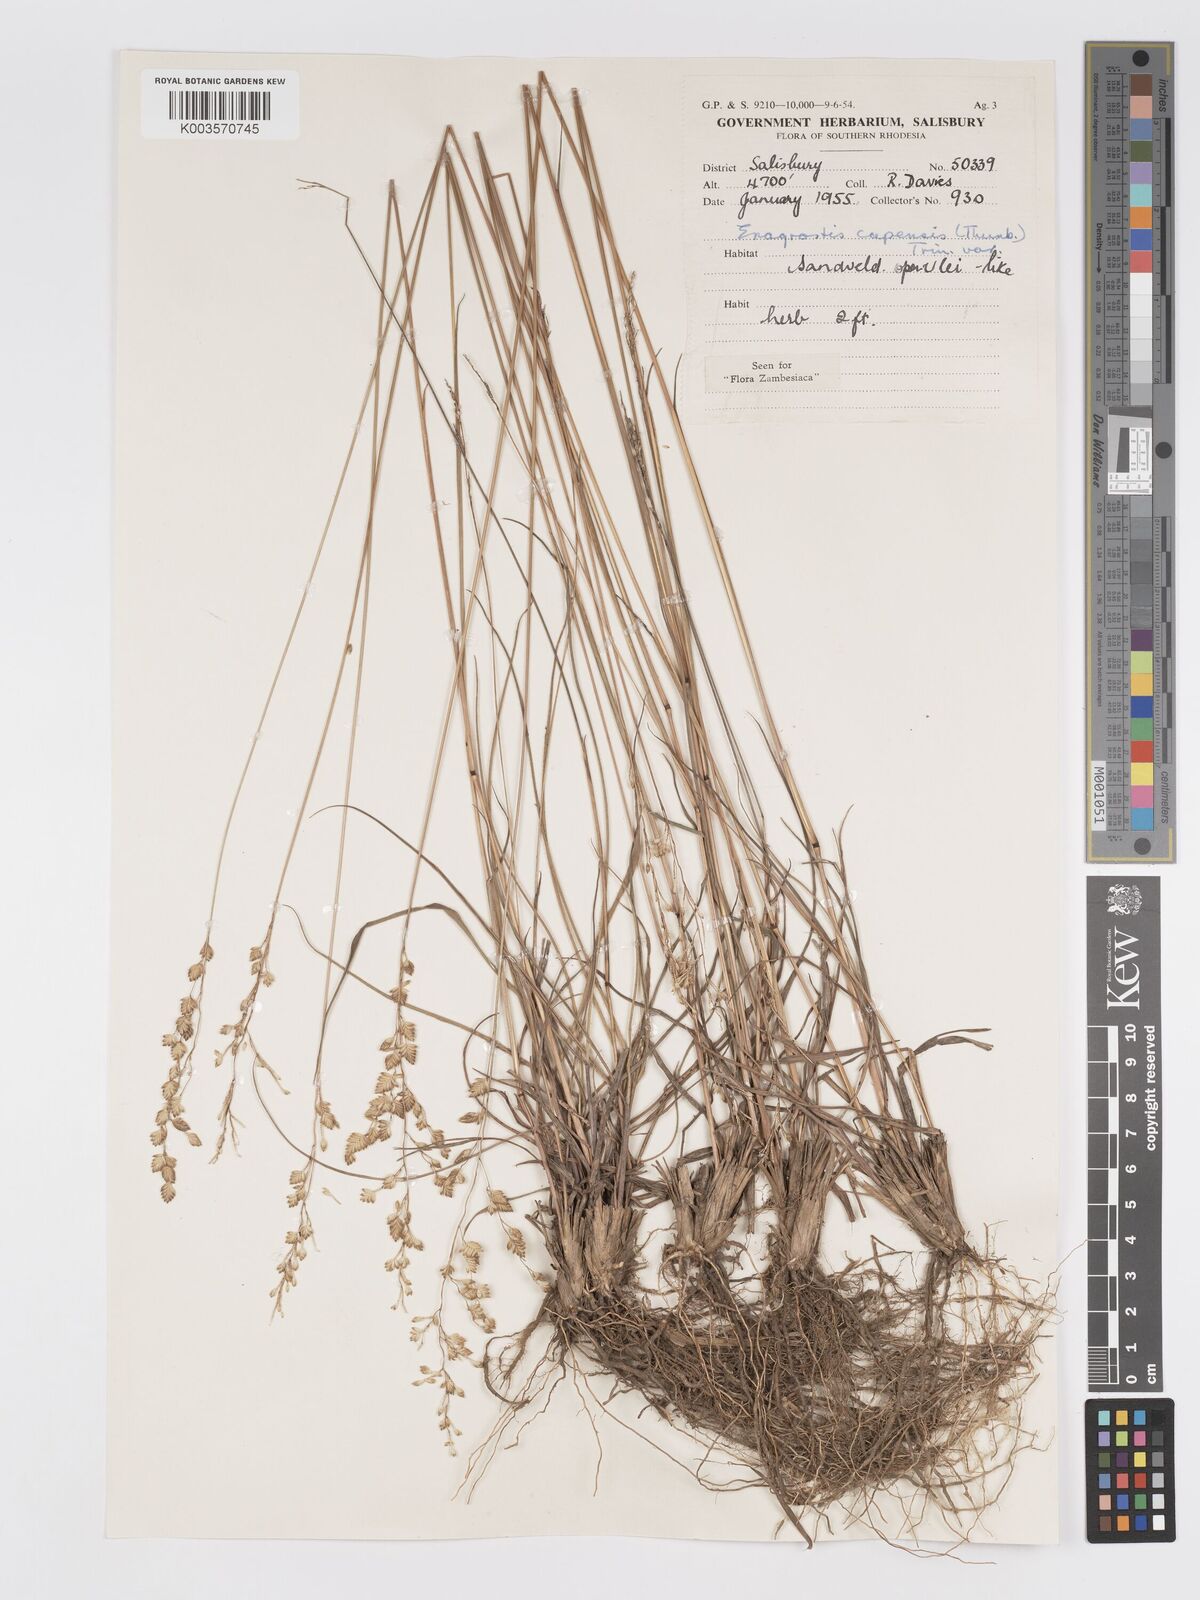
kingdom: Plantae
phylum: Tracheophyta
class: Liliopsida
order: Poales
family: Poaceae
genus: Eragrostis
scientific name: Eragrostis capensis
